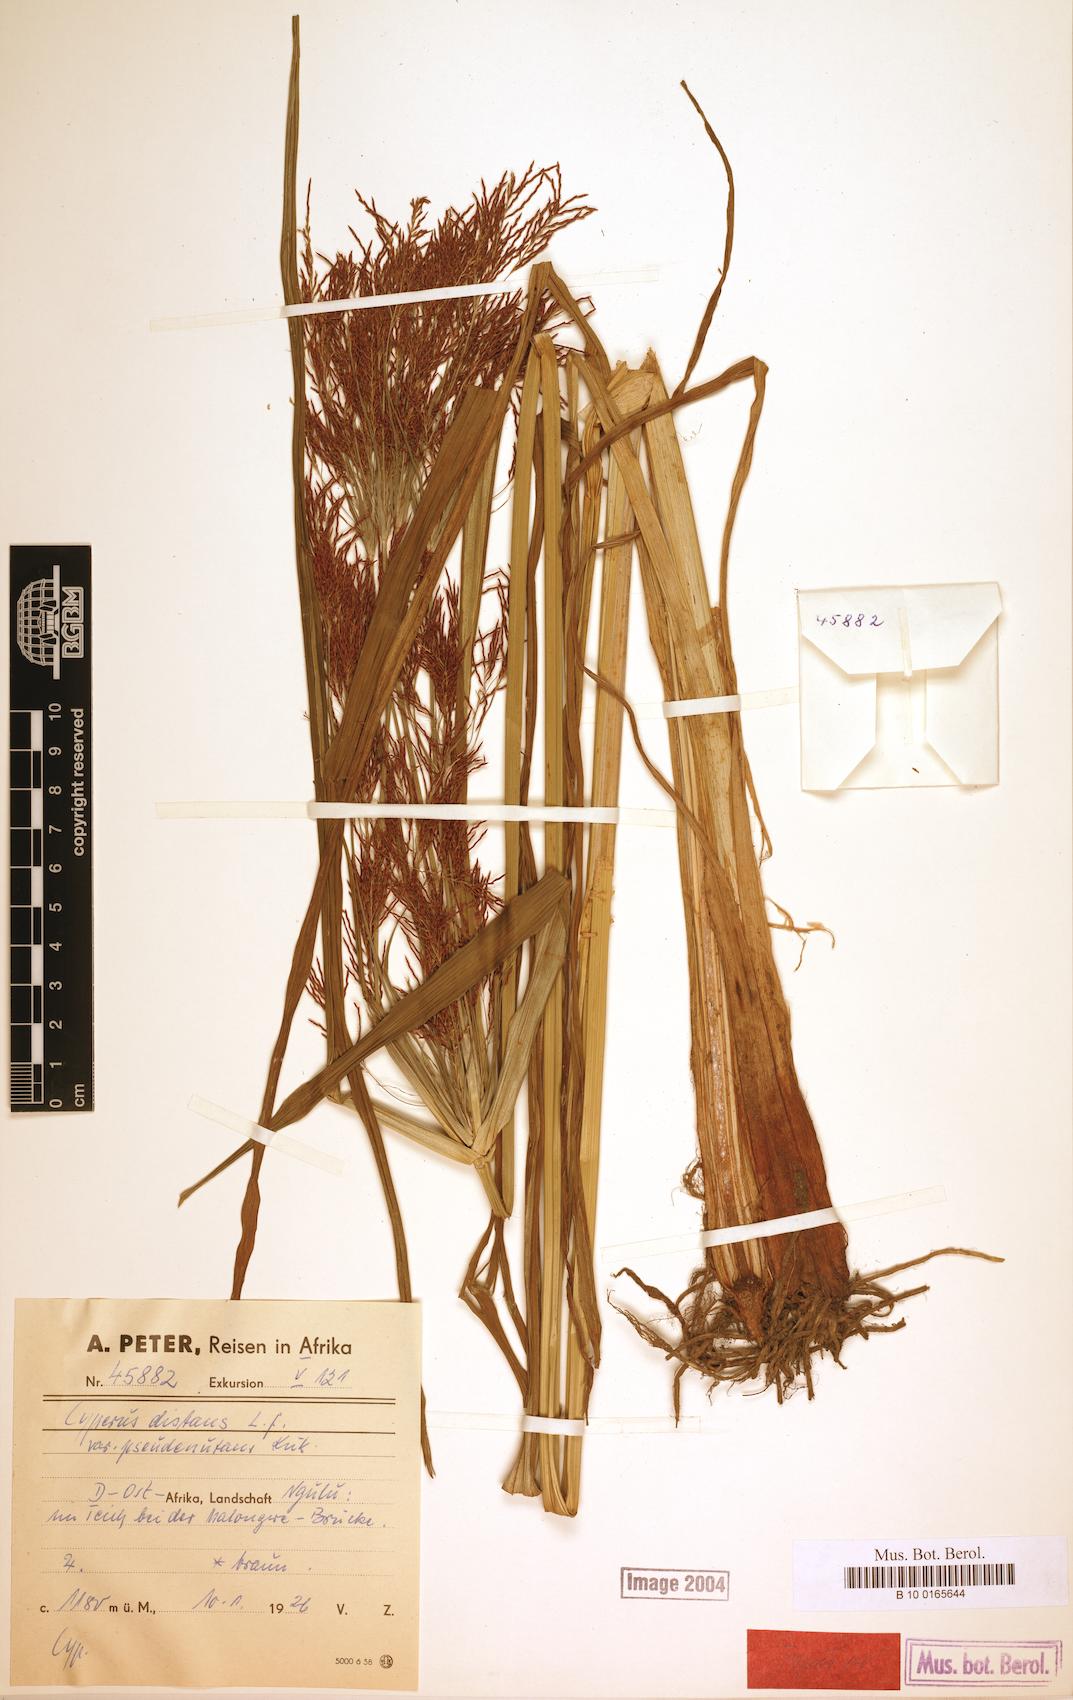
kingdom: Plantae
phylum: Tracheophyta
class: Liliopsida
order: Poales
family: Cyperaceae
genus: Cyperus
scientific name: Cyperus distans
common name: Slender cyperus
